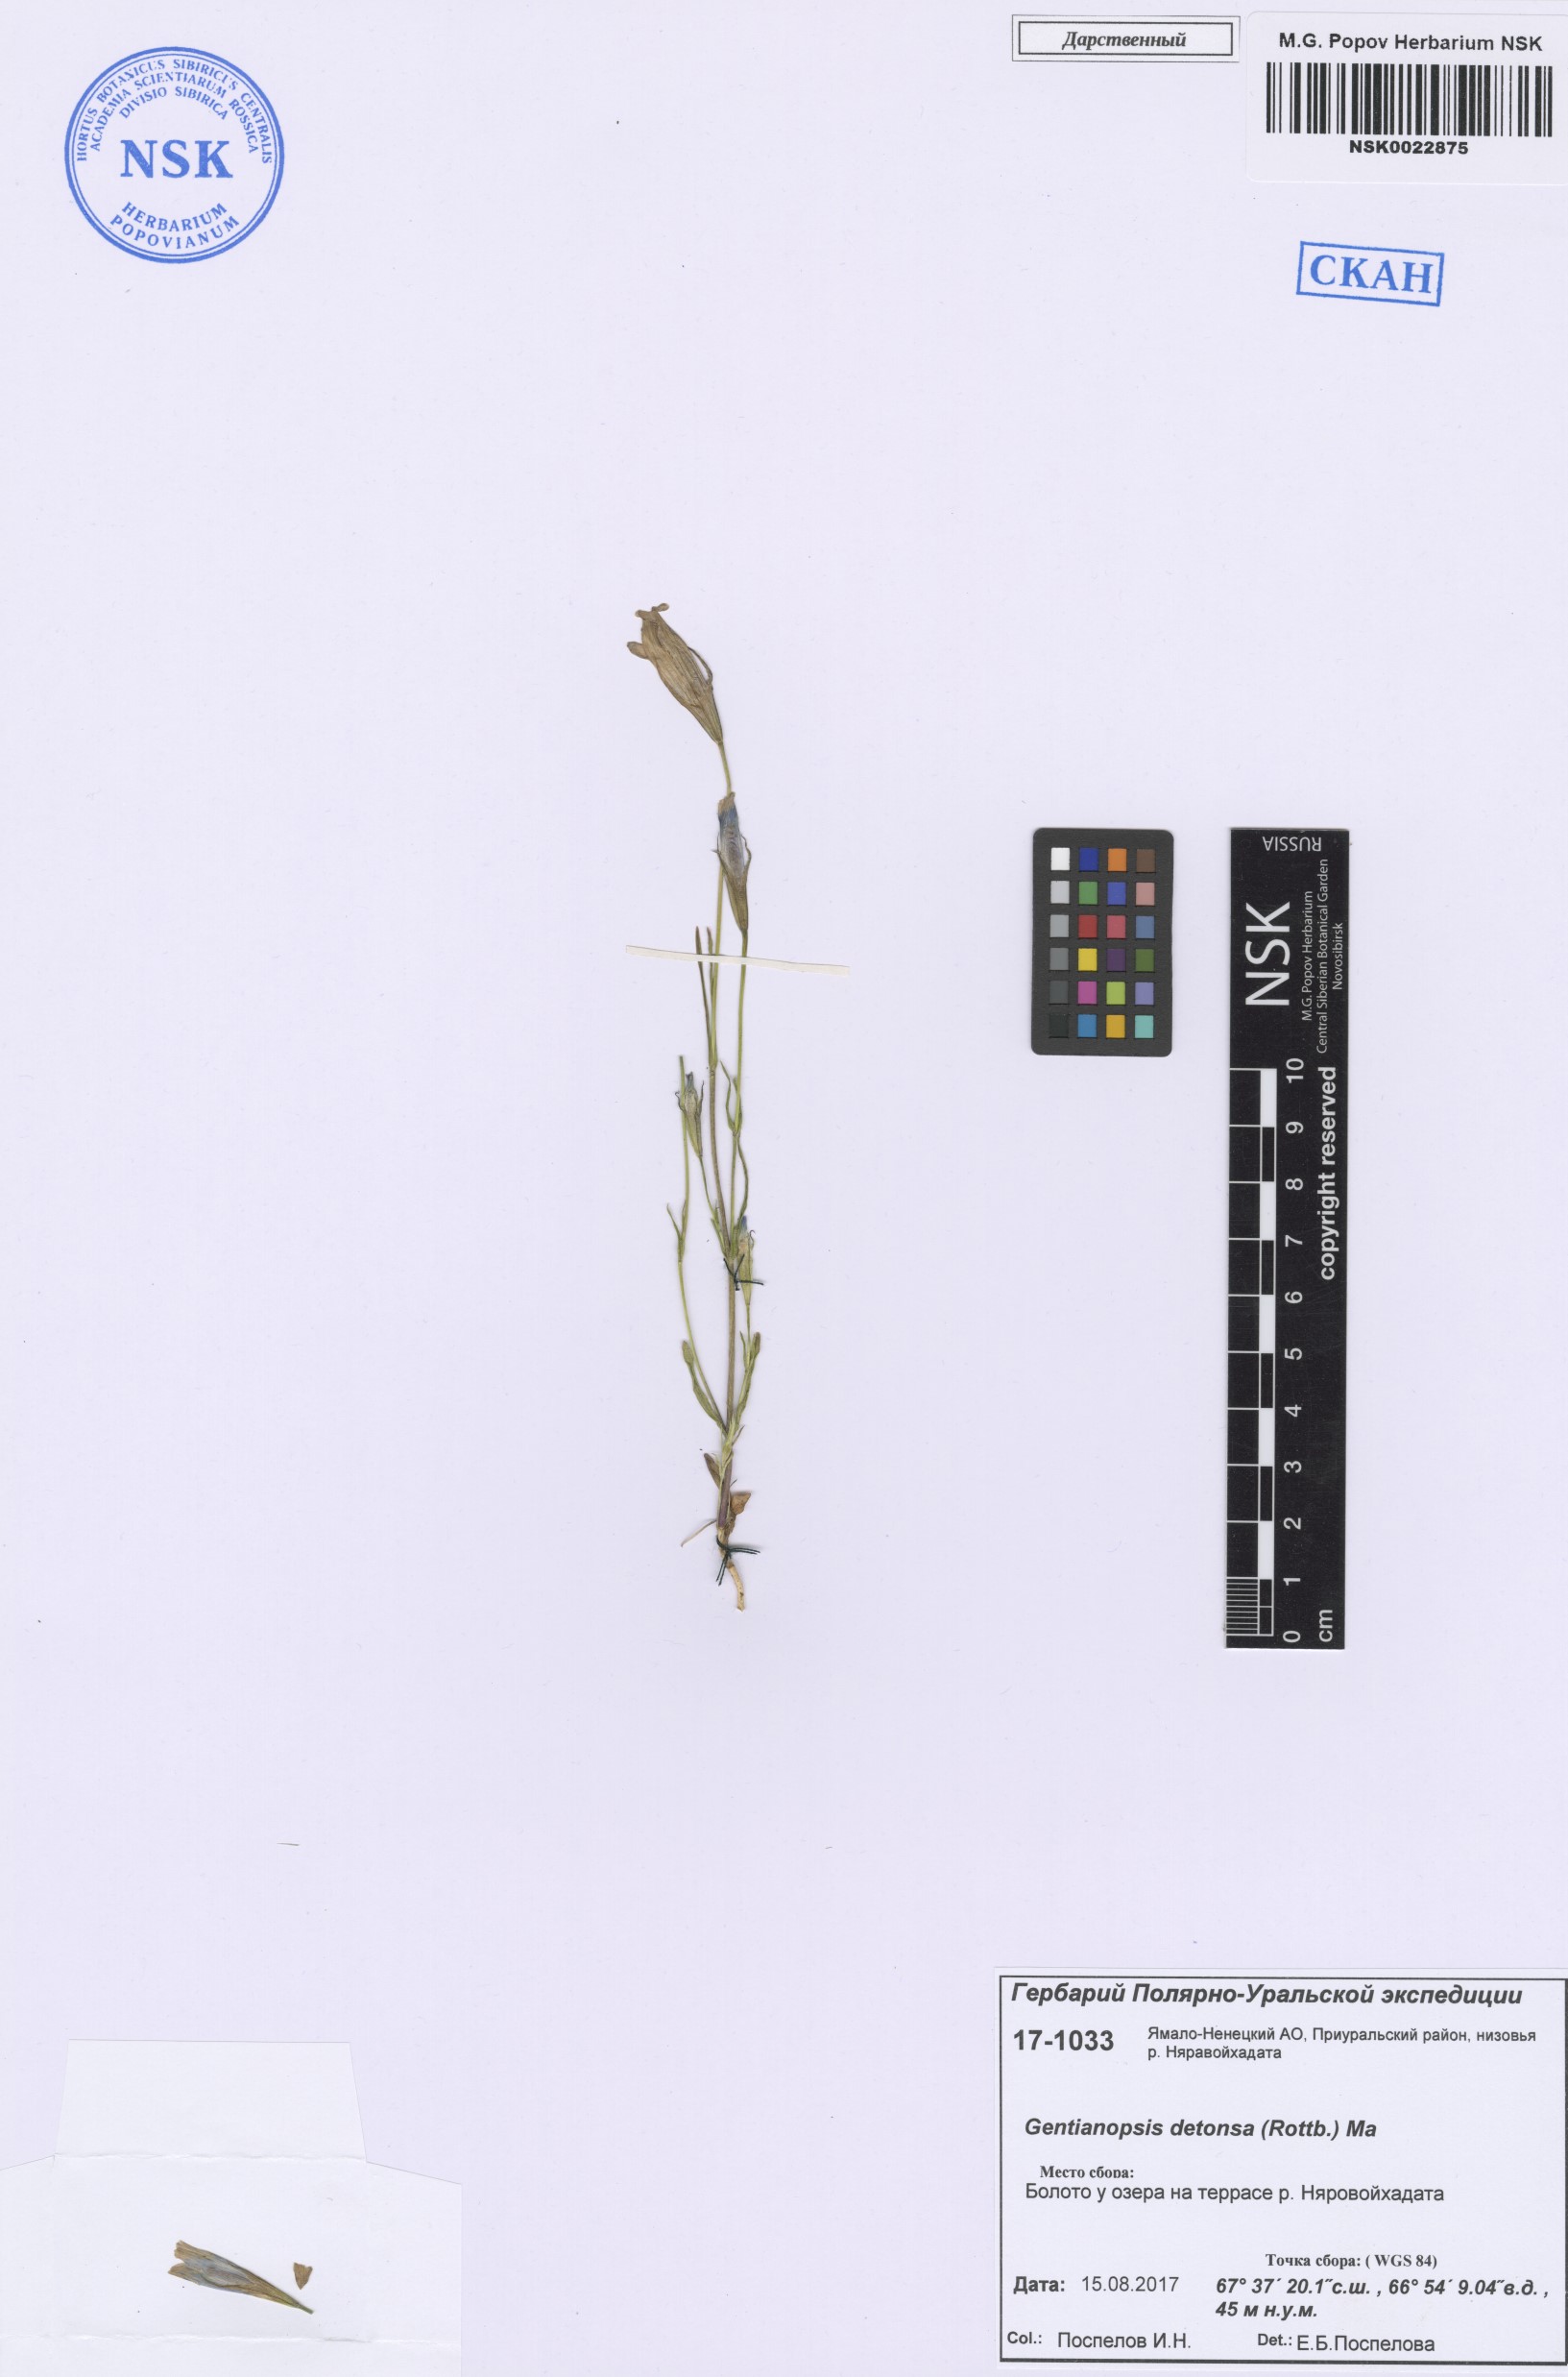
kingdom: Plantae
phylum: Tracheophyta
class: Magnoliopsida
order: Gentianales
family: Gentianaceae
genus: Gentianopsis
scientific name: Gentianopsis detonsa
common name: Fringed-gentian
